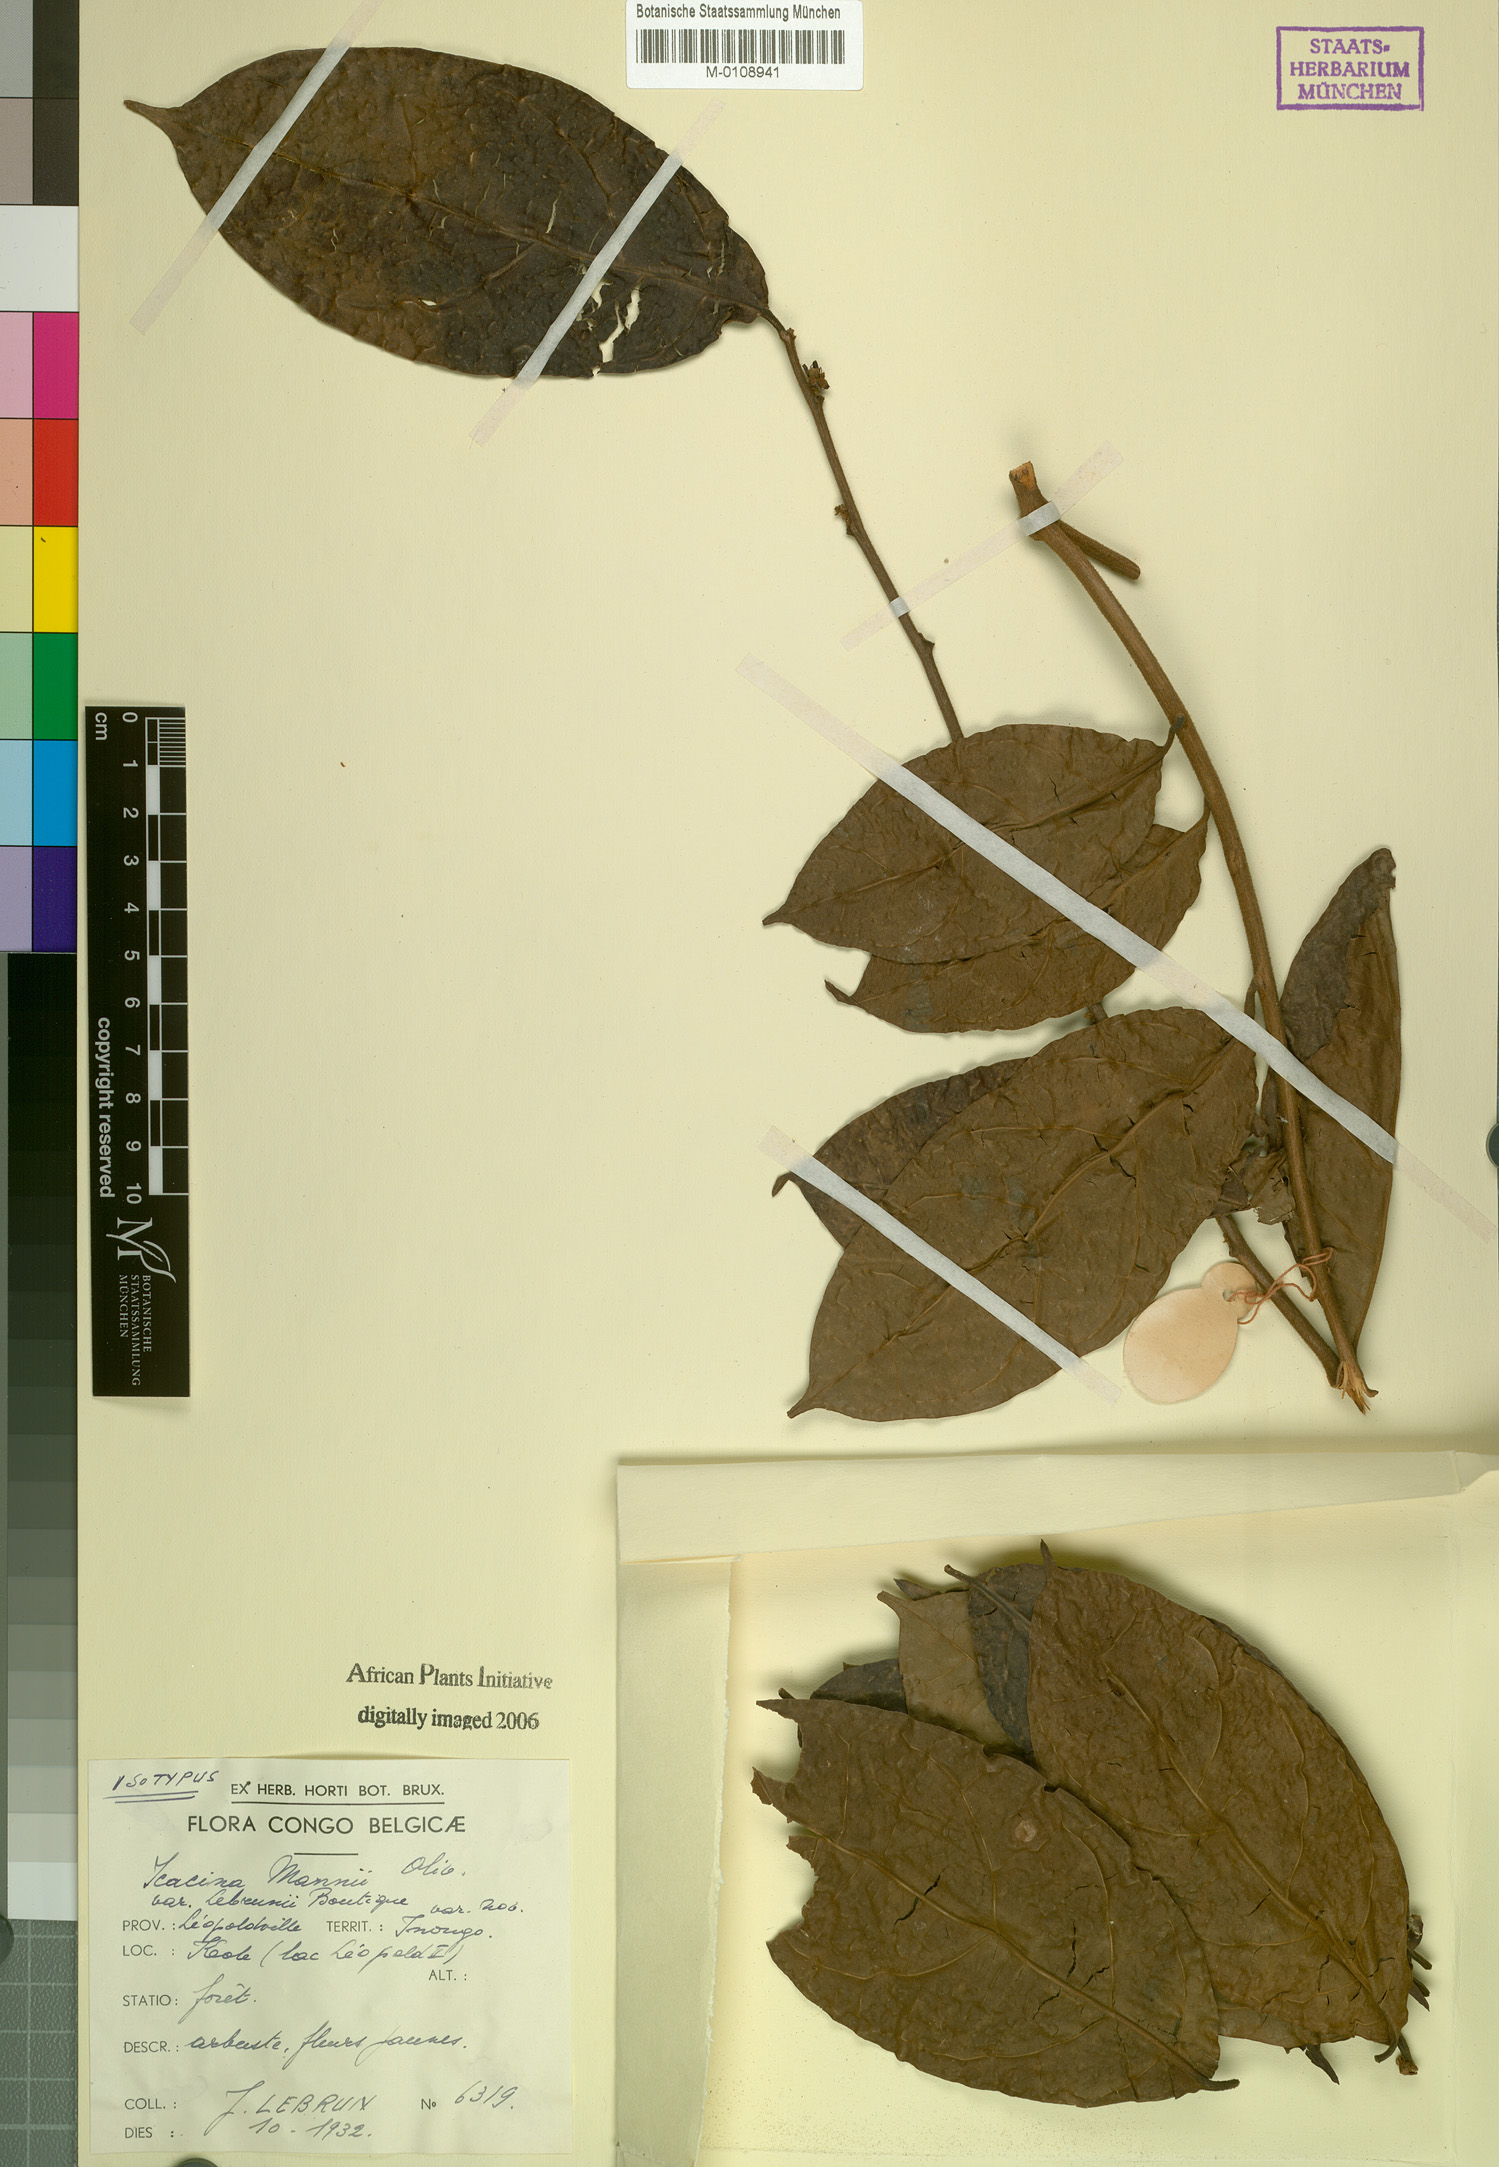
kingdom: Plantae
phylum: Tracheophyta
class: Magnoliopsida
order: Icacinales
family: Icacinaceae
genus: Icacina
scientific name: Icacina mannii
